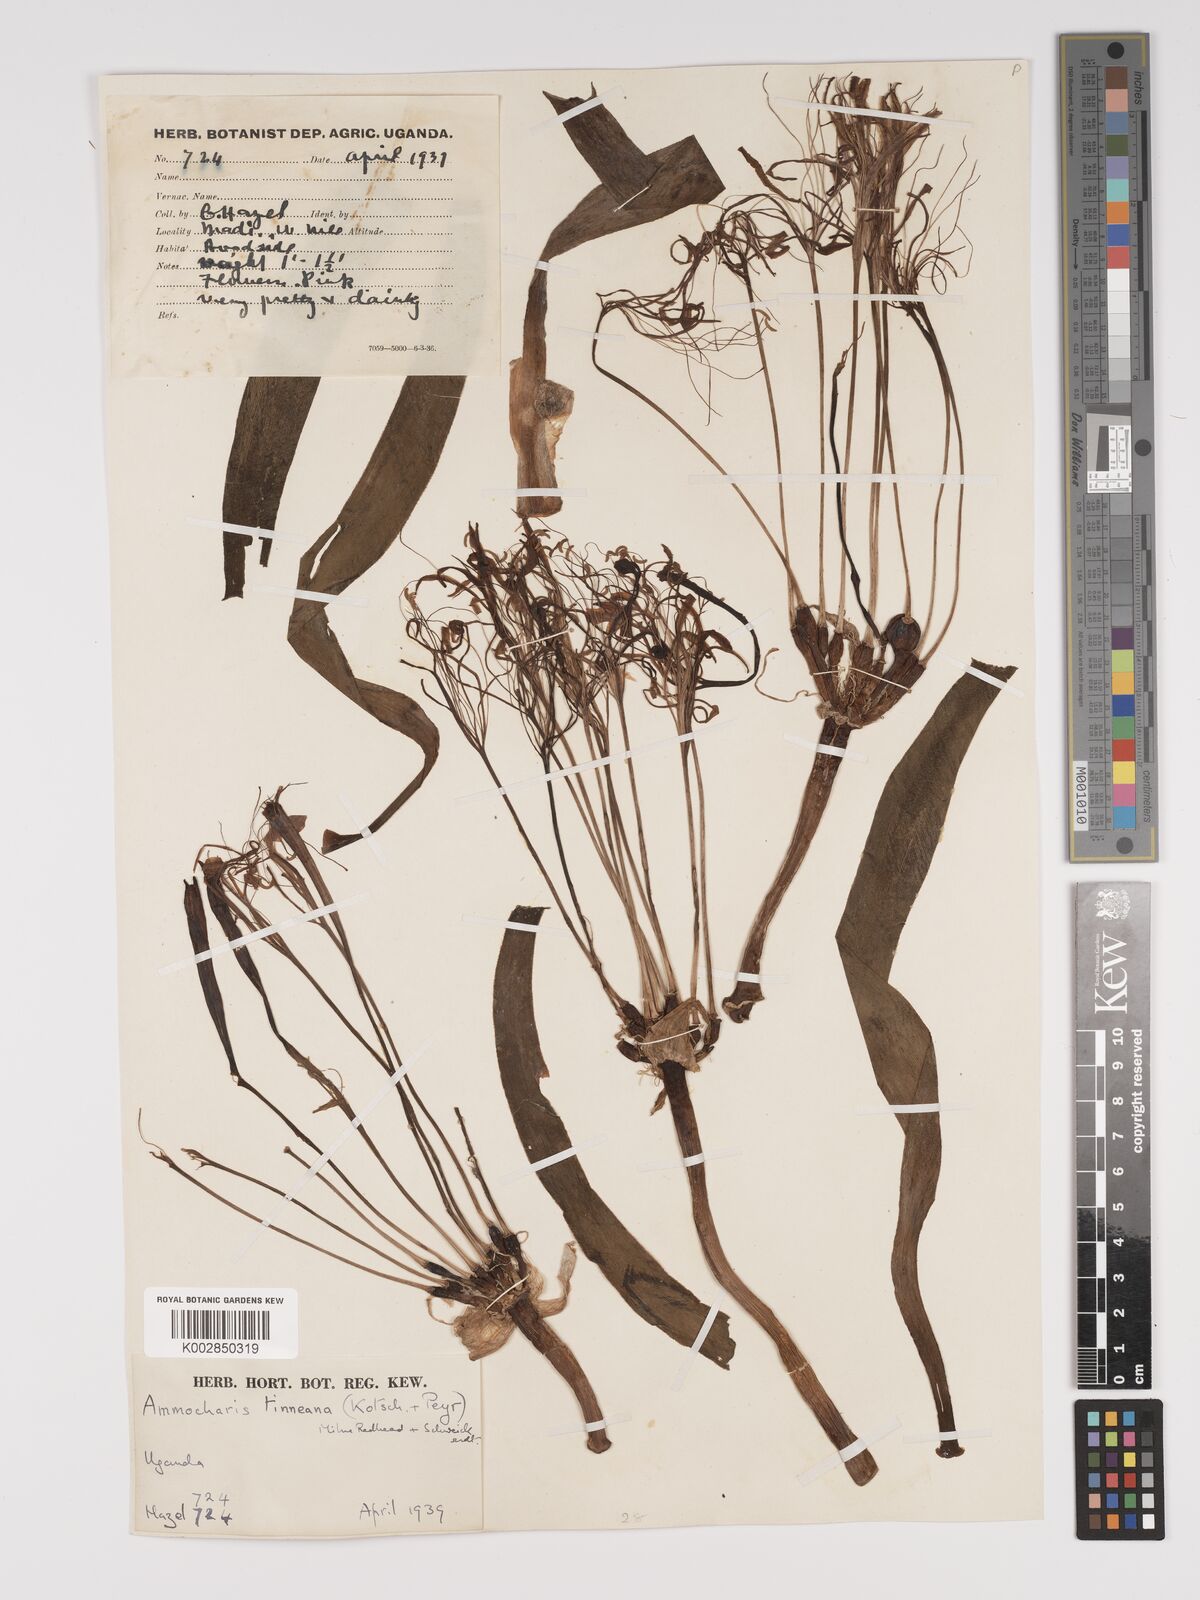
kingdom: Plantae
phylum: Tracheophyta
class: Liliopsida
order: Asparagales
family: Amaryllidaceae
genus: Ammocharis
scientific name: Ammocharis tinneana
